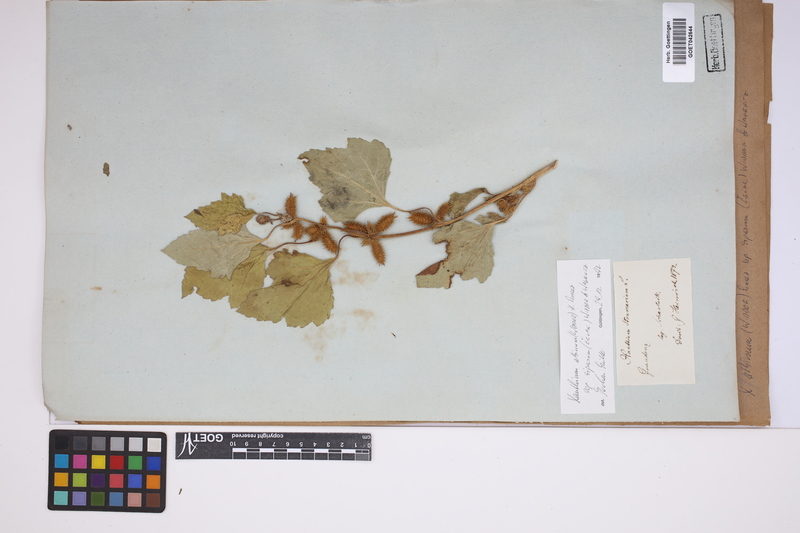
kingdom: Plantae
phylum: Tracheophyta
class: Magnoliopsida
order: Asterales
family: Asteraceae
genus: Xanthium
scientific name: Xanthium orientale
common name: Californian burr
